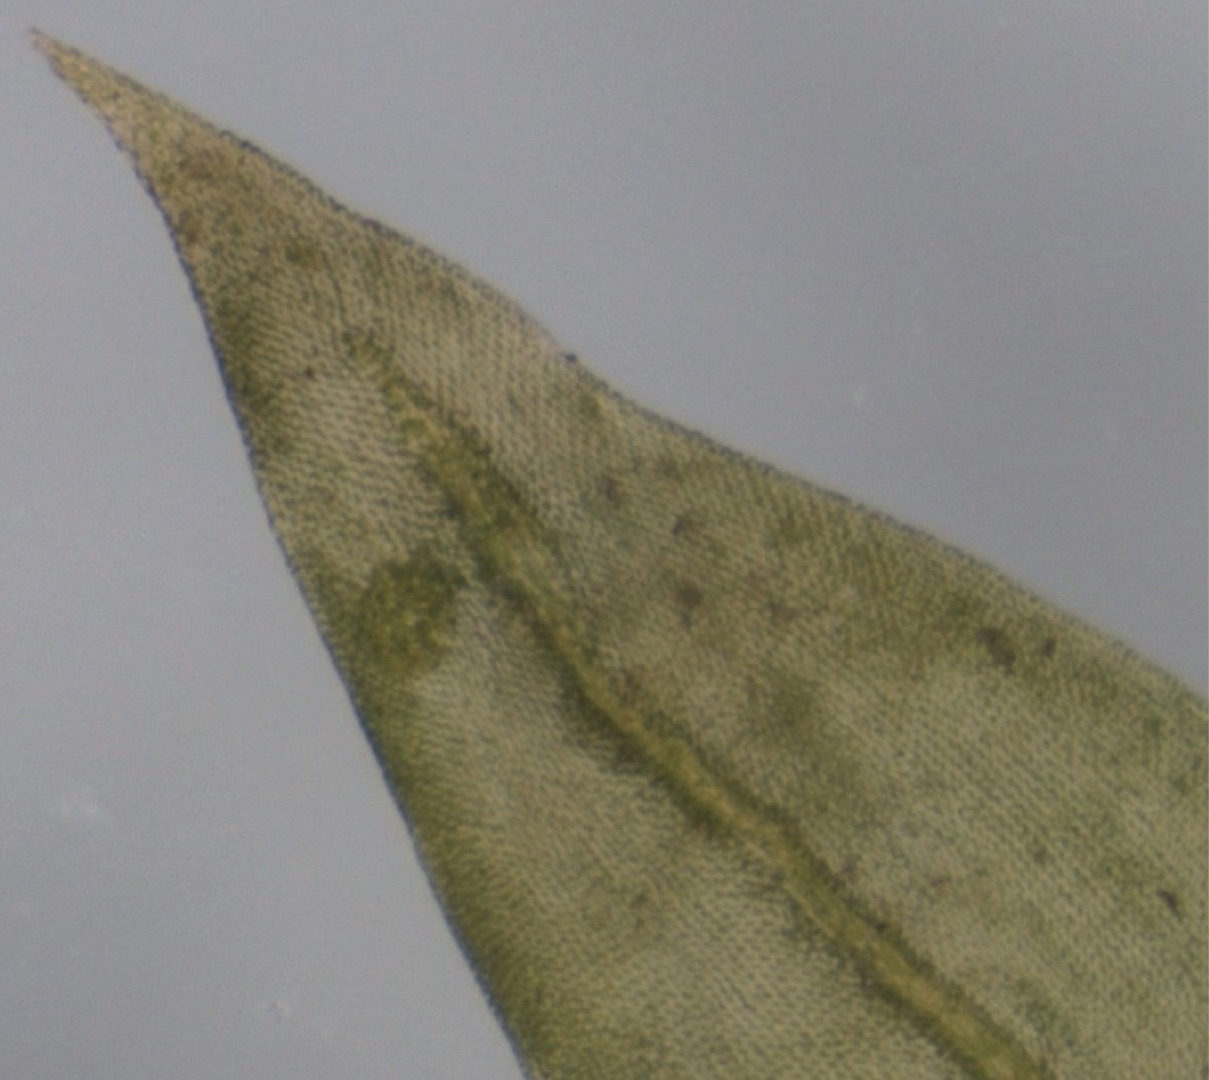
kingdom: Plantae
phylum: Bryophyta
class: Bryopsida
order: Hypnales
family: Cryphaeaceae
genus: Cryphaea
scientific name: Cryphaea heteromalla
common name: Bark-dækmos
